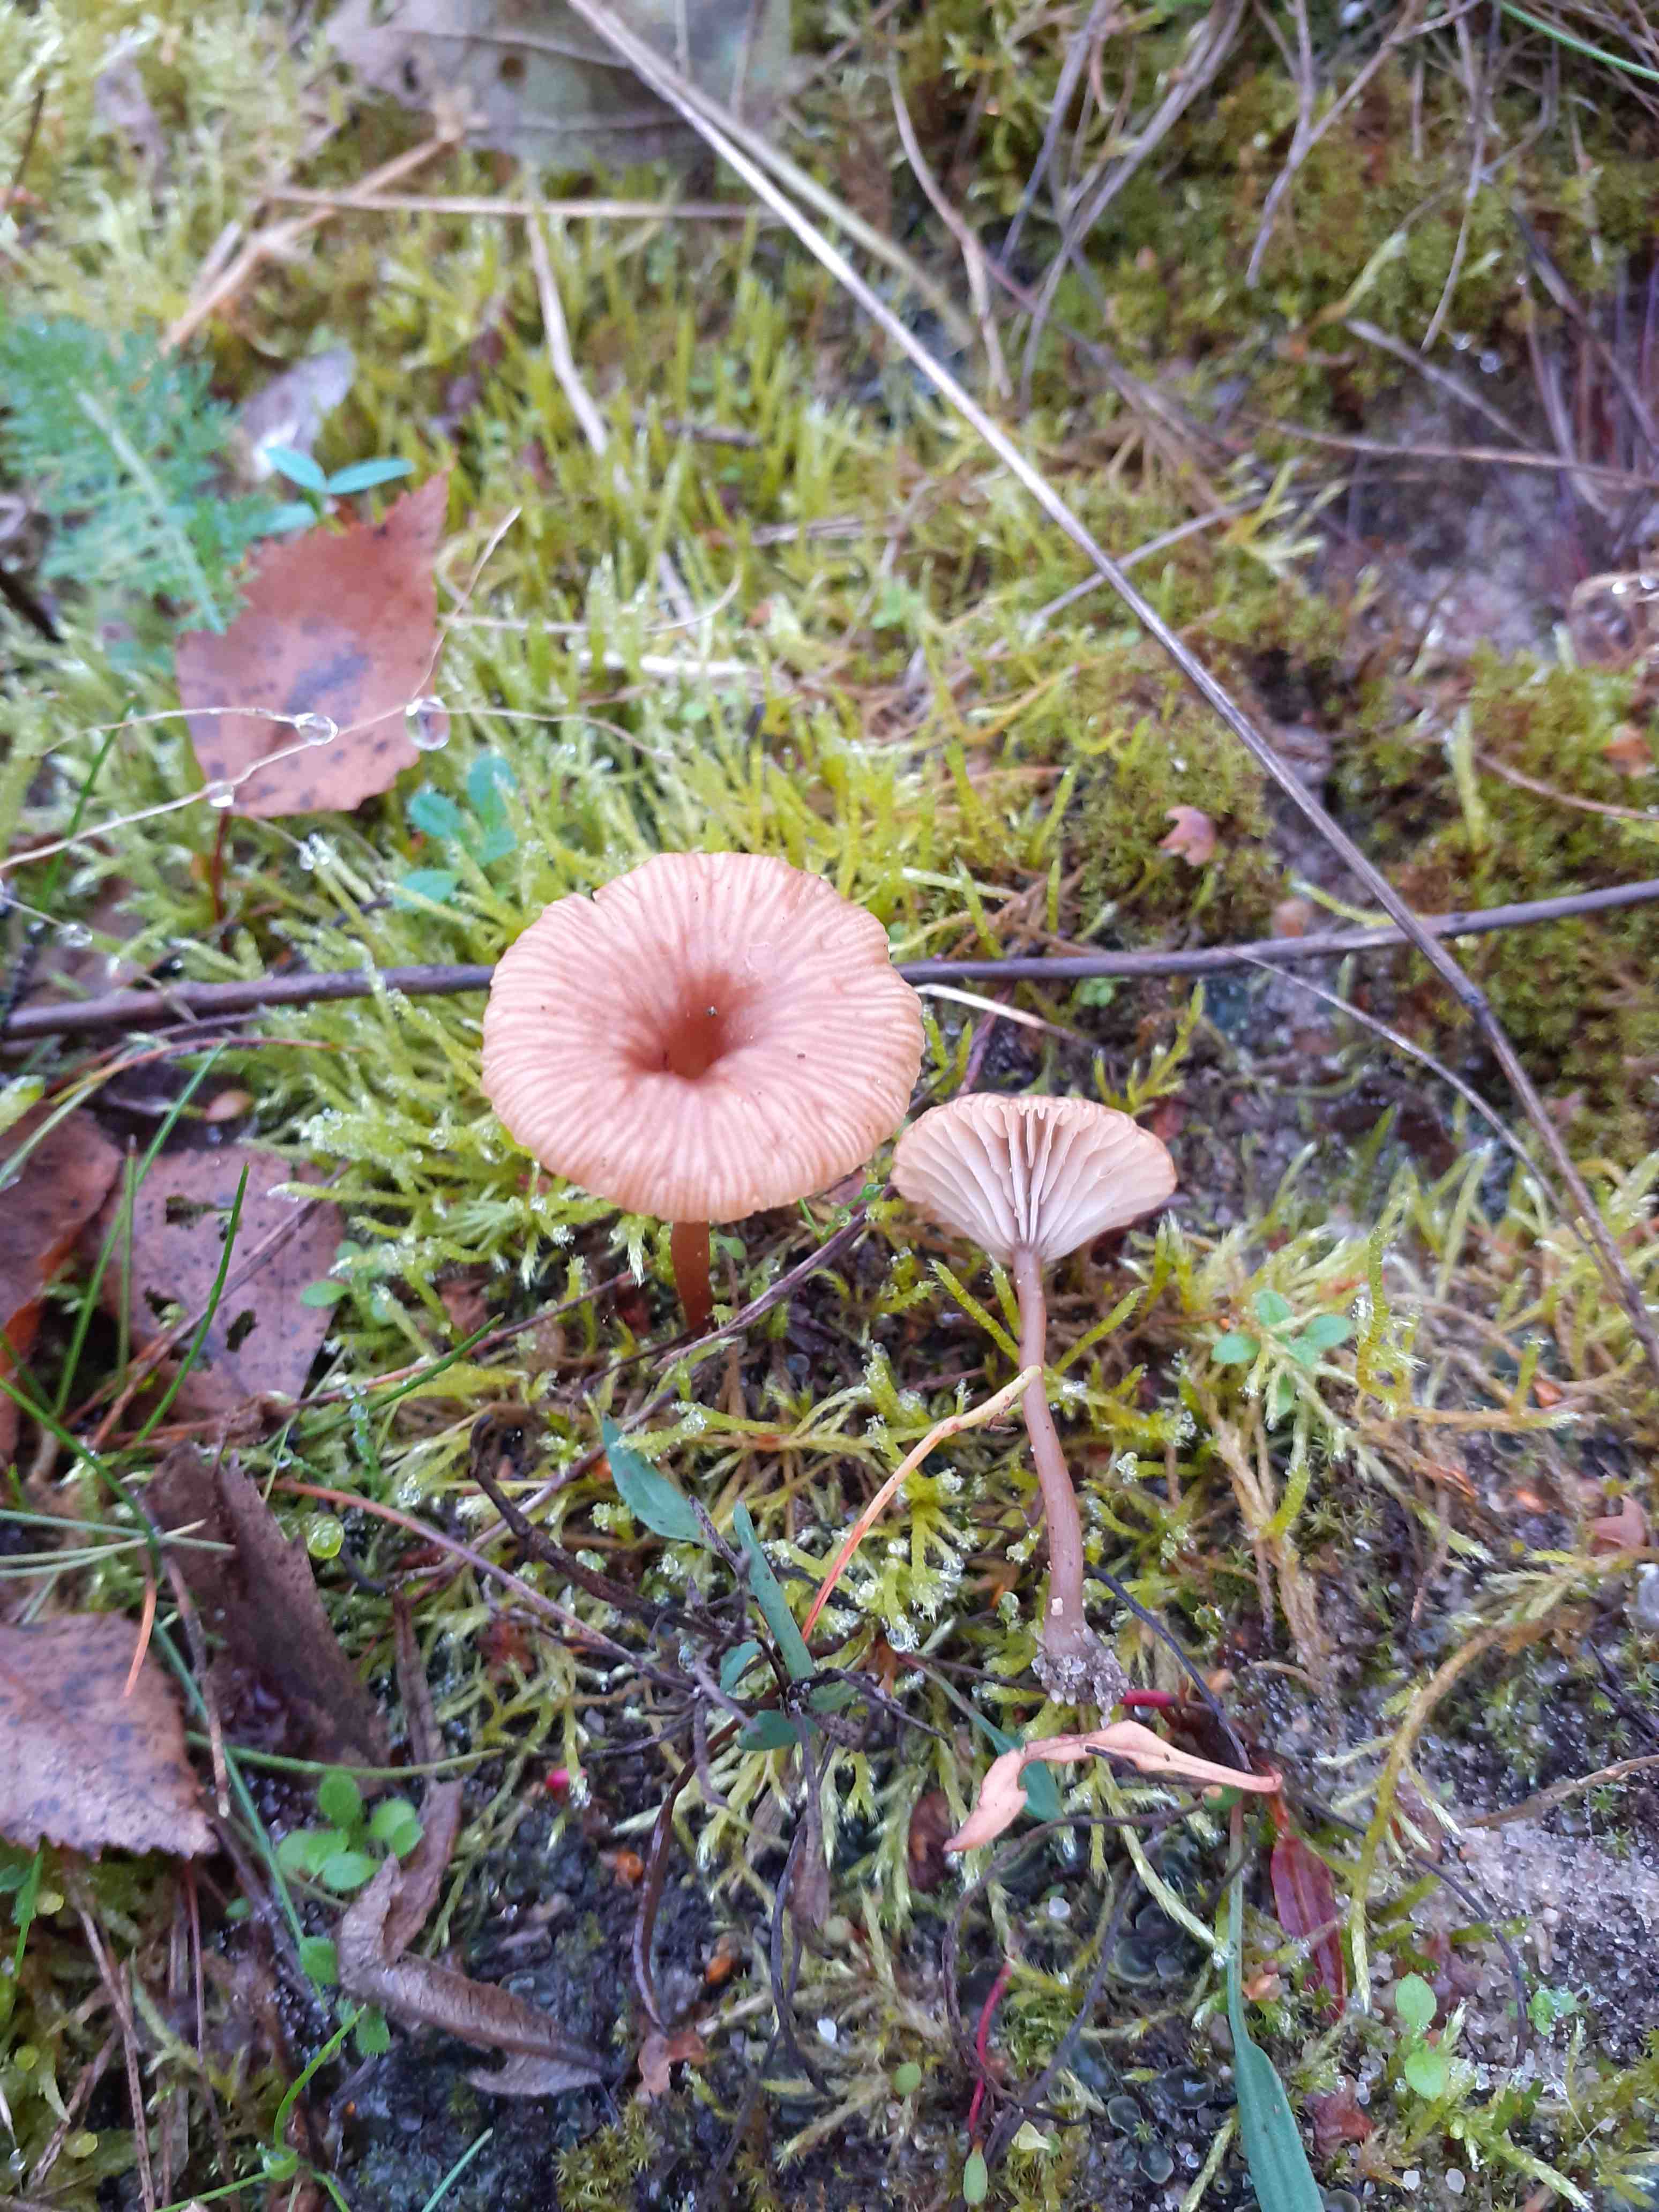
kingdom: Fungi
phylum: Basidiomycota
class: Agaricomycetes
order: Agaricales
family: Tricholomataceae
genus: Omphalina
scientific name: Omphalina pyxidata
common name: rødbrun navlehat
